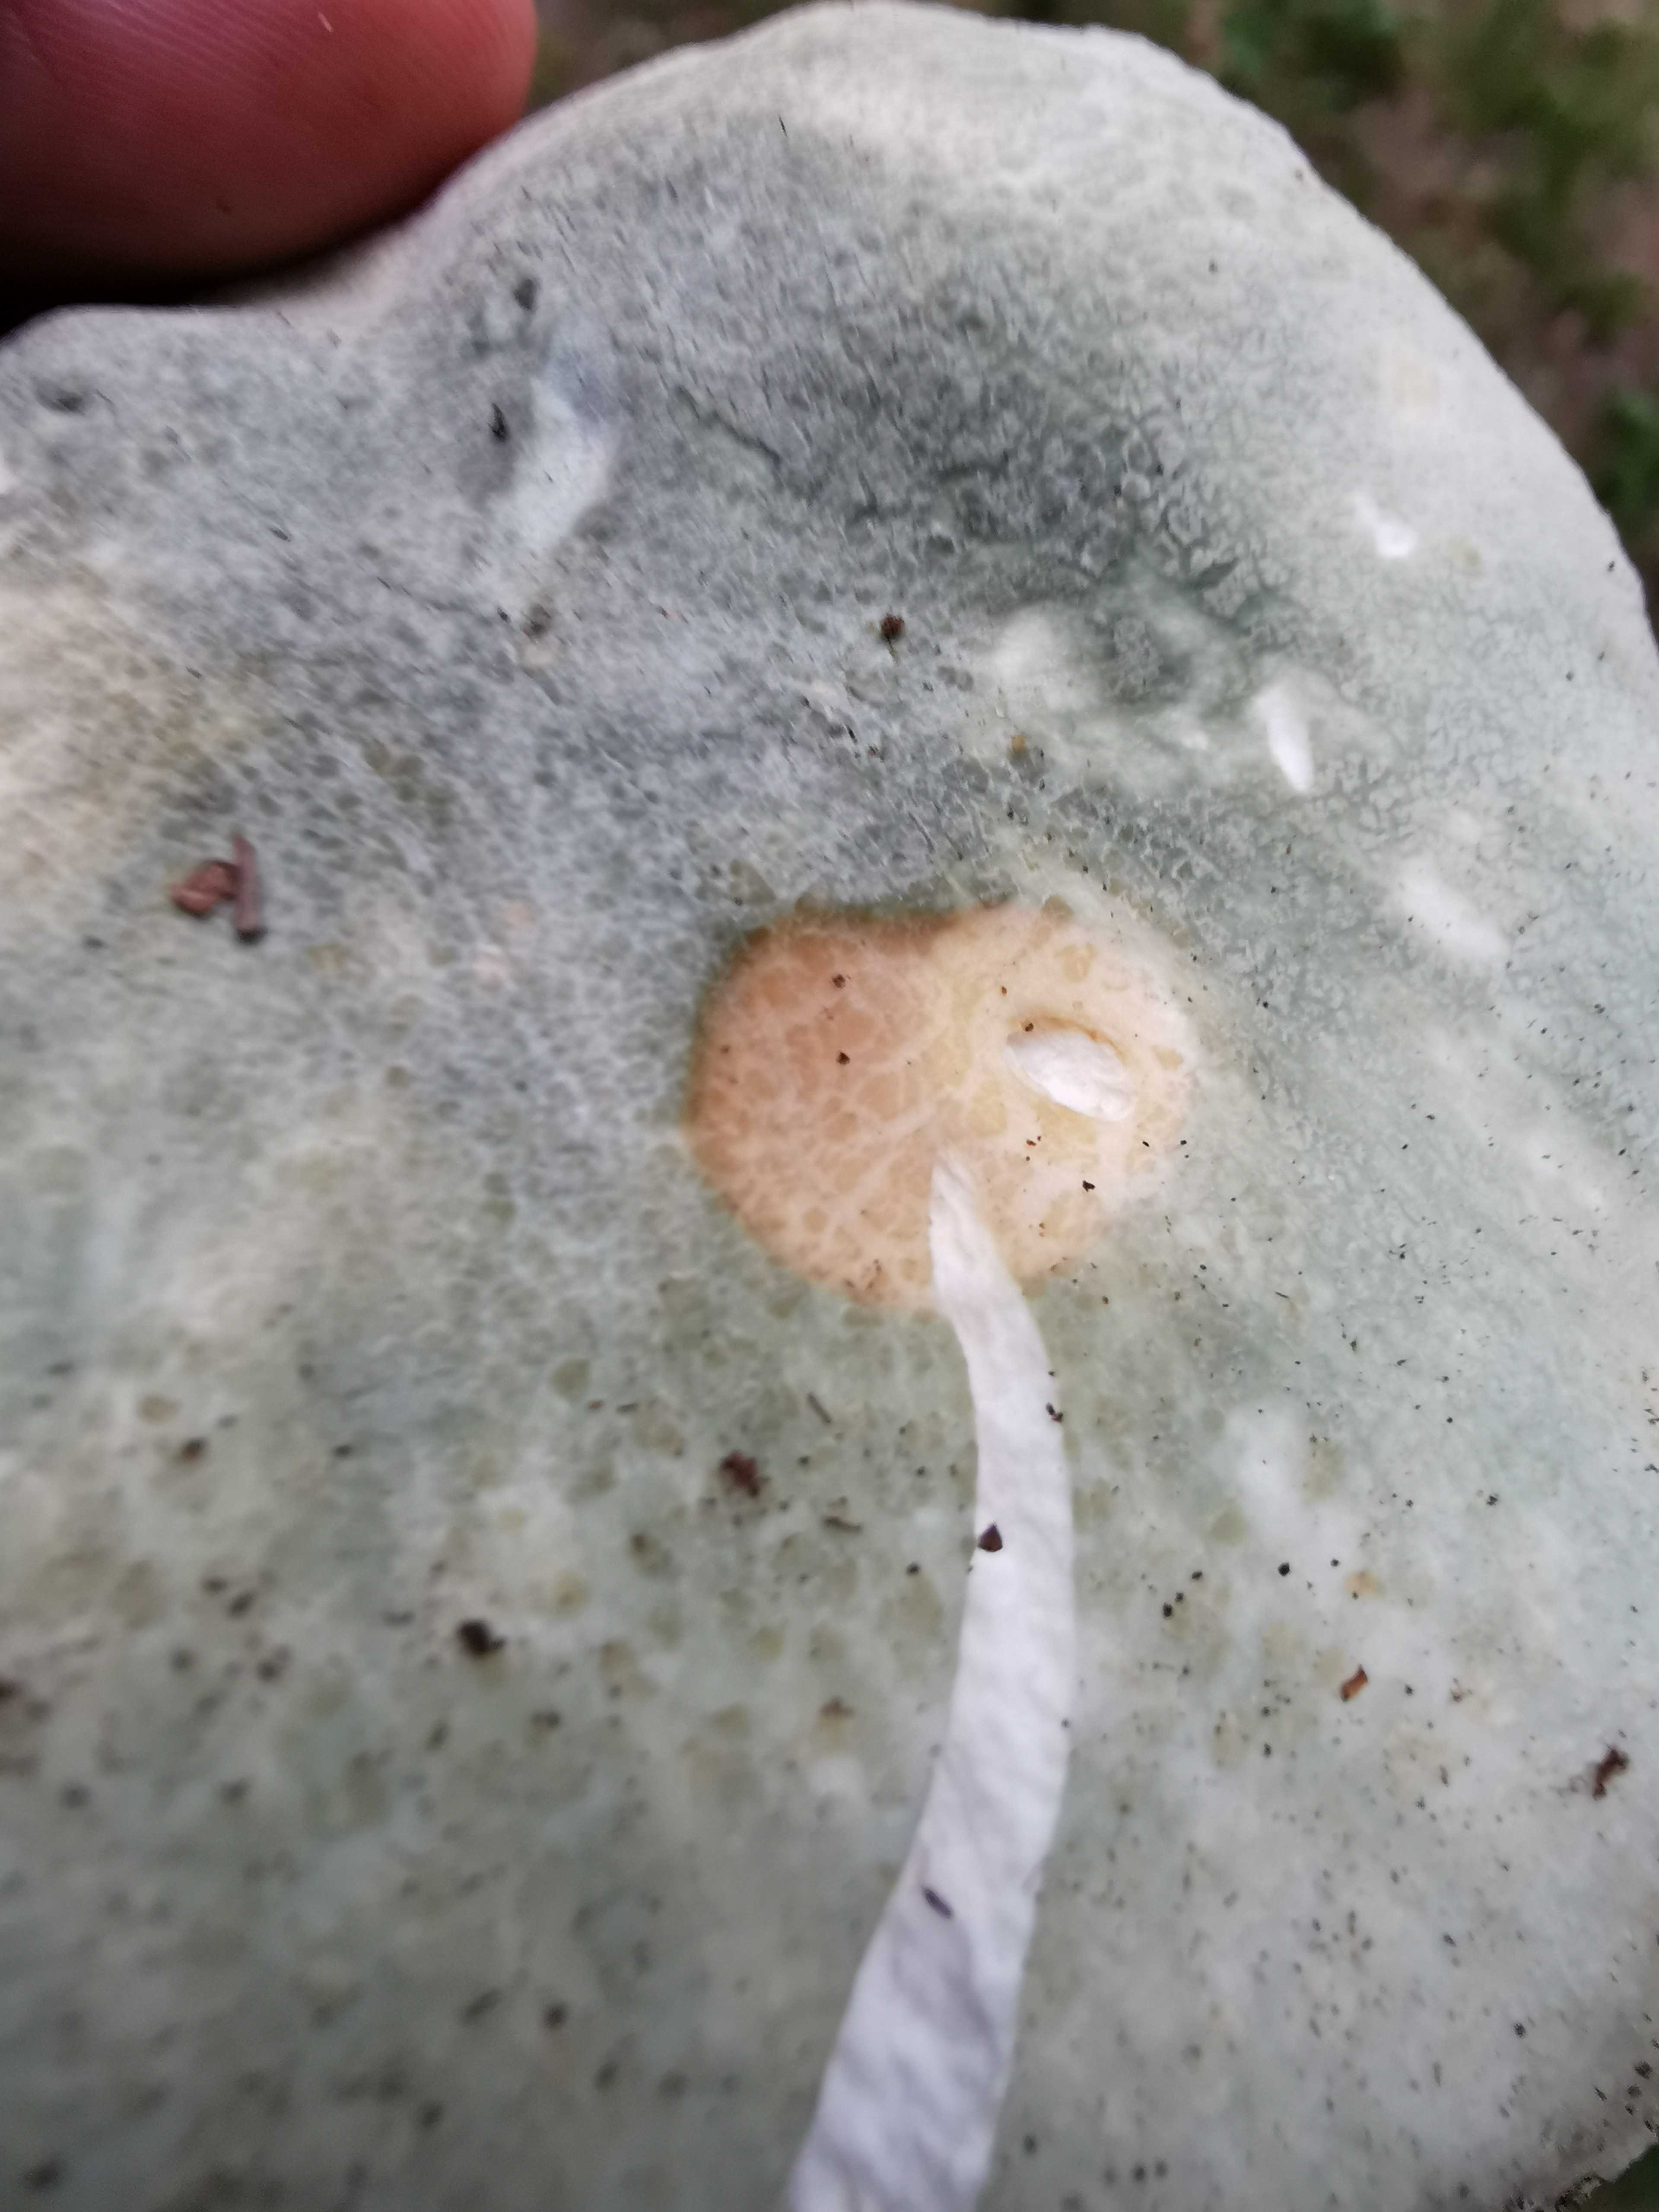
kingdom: Fungi
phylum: Basidiomycota
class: Agaricomycetes
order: Russulales
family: Russulaceae
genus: Russula
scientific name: Russula virescens
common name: spanskgrøn skørhat
